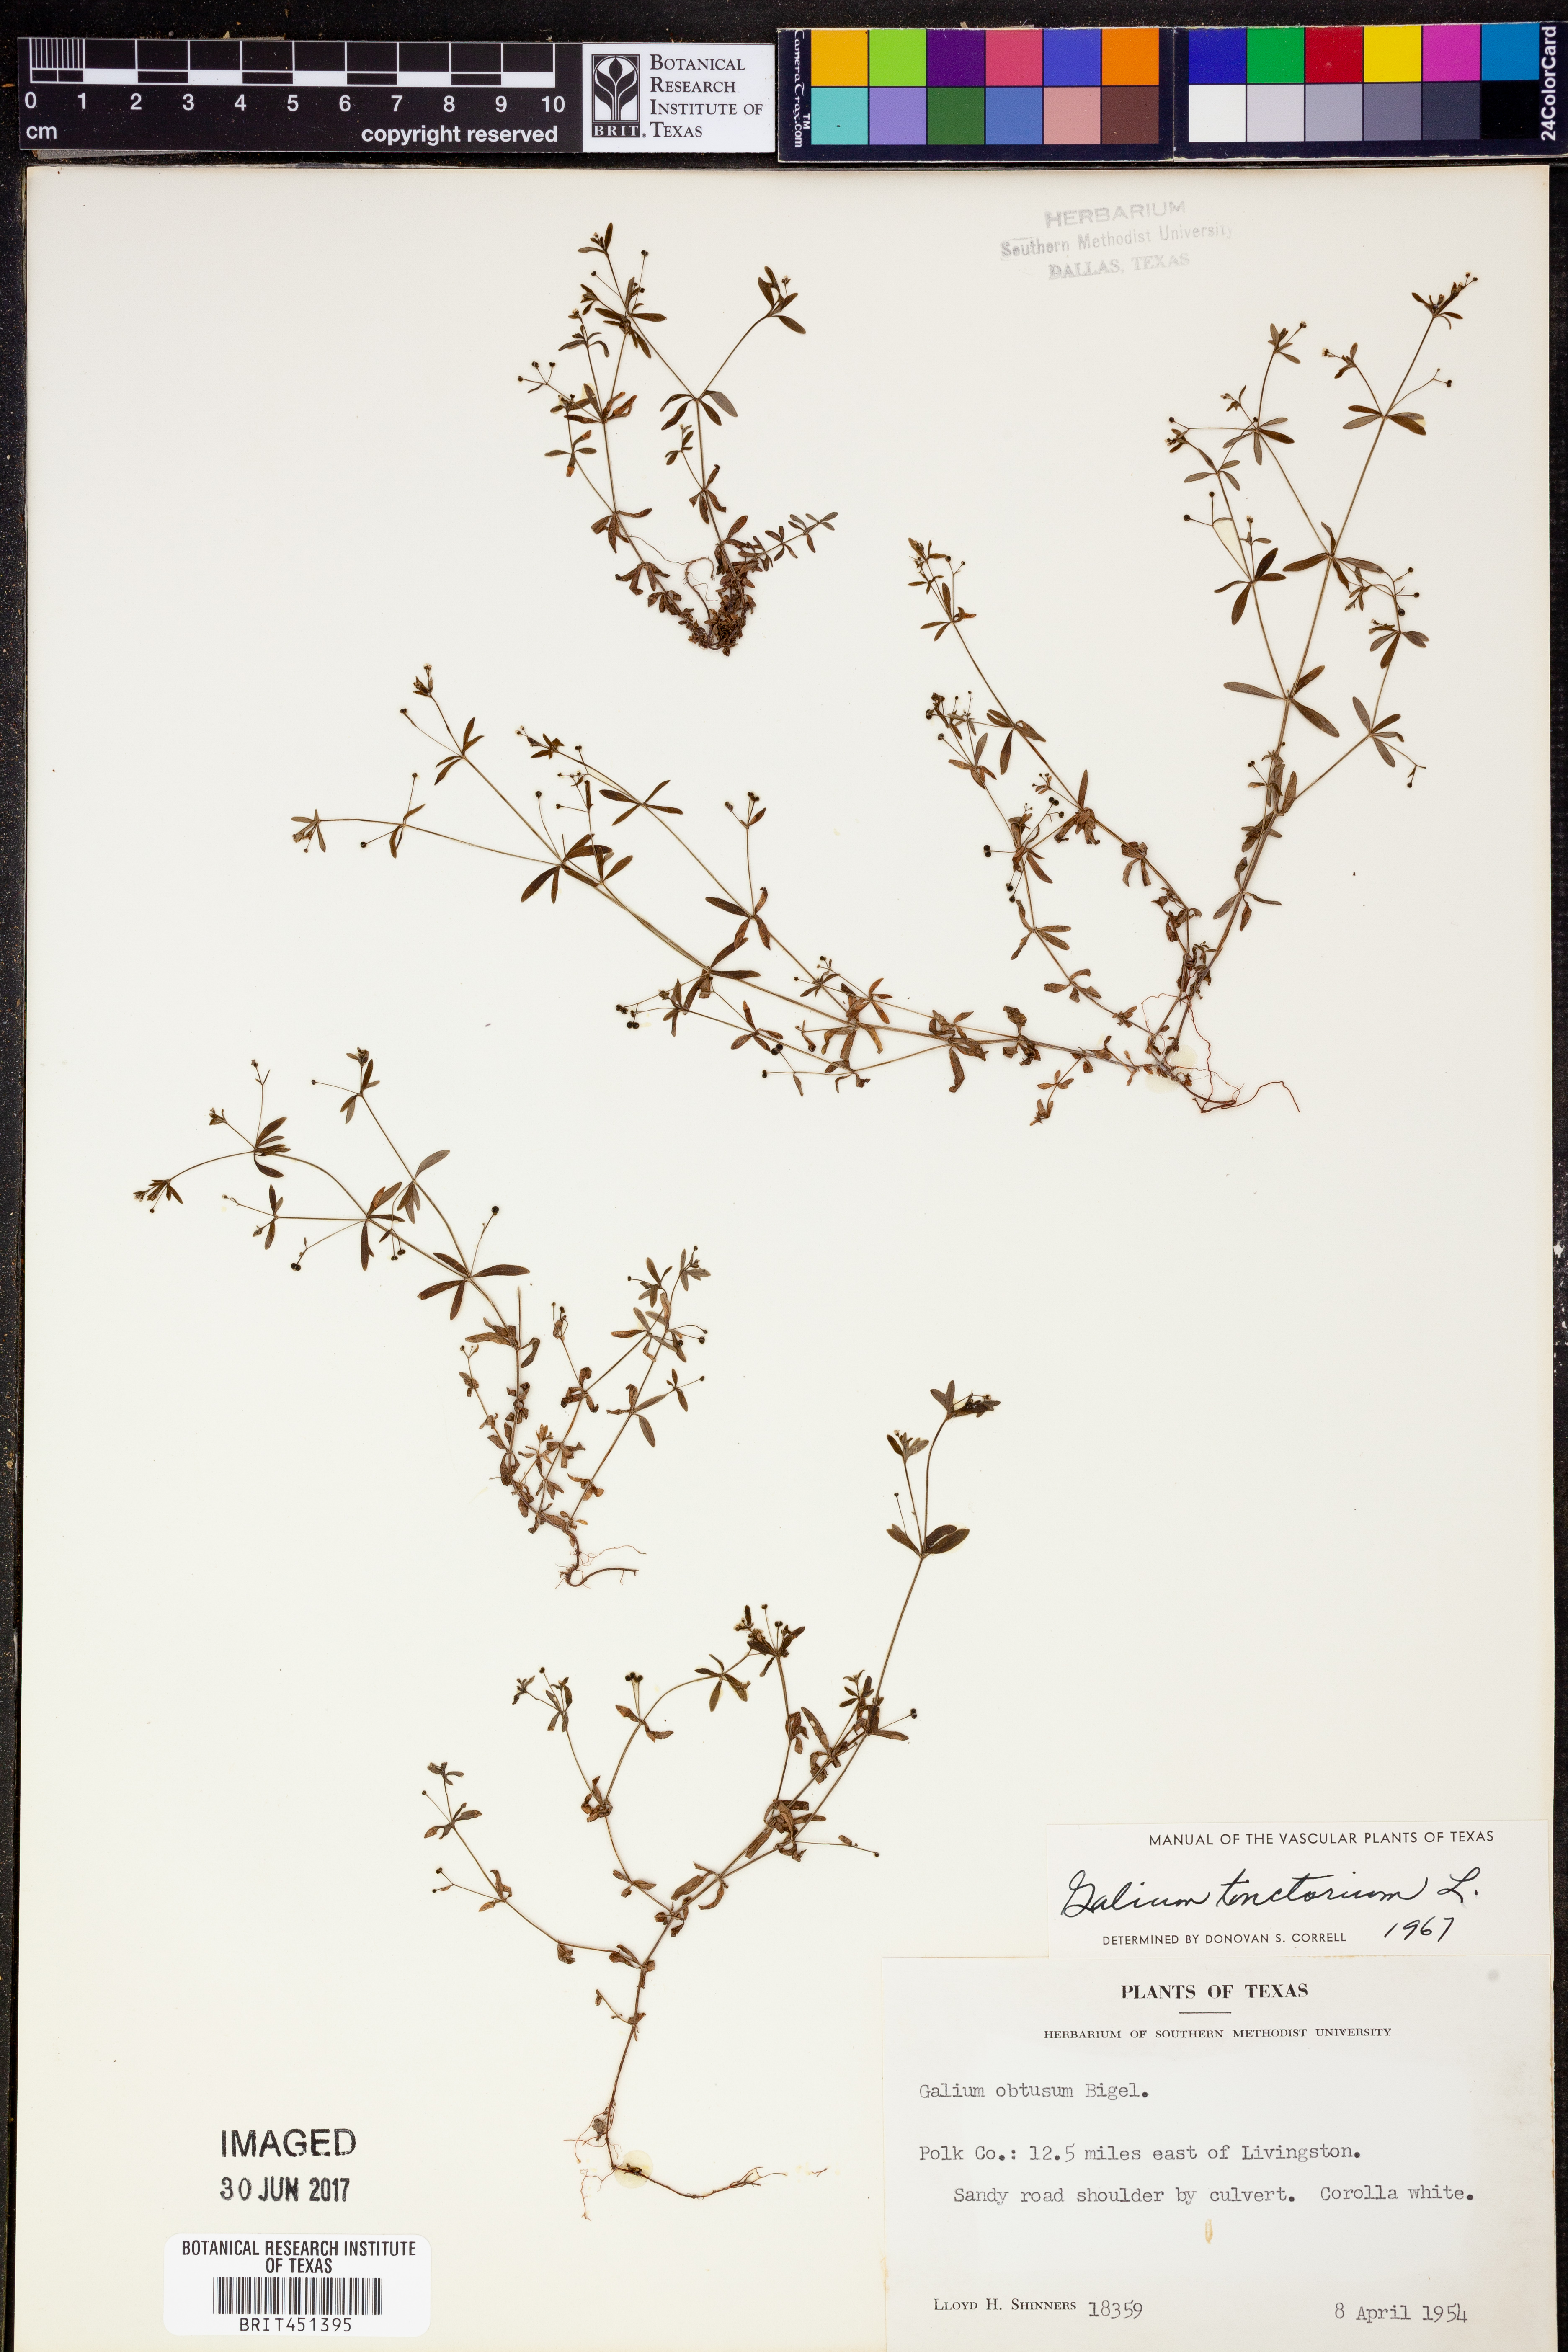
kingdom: Plantae
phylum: Tracheophyta
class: Magnoliopsida
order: Gentianales
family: Rubiaceae
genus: Asperula
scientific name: Asperula tinctoria
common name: Dyer's woodruff
